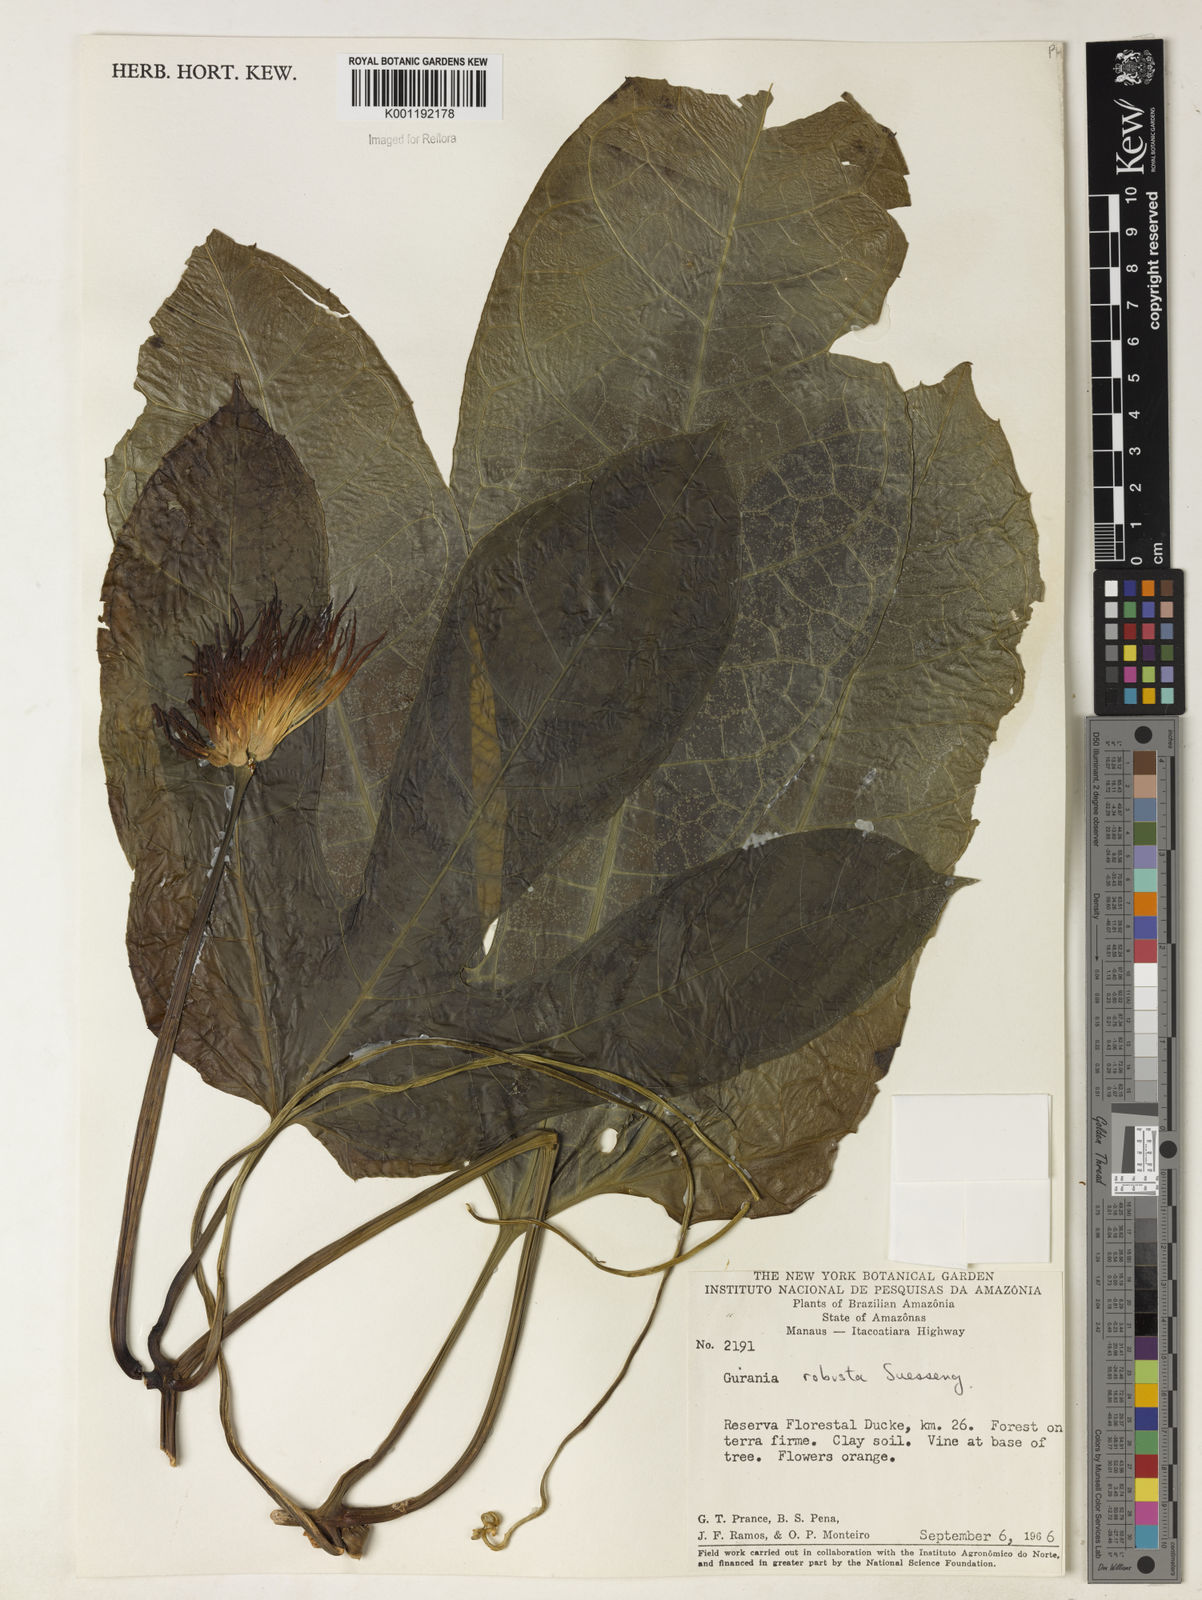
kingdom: Plantae
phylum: Tracheophyta
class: Magnoliopsida
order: Cucurbitales
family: Cucurbitaceae
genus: Gurania
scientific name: Gurania
